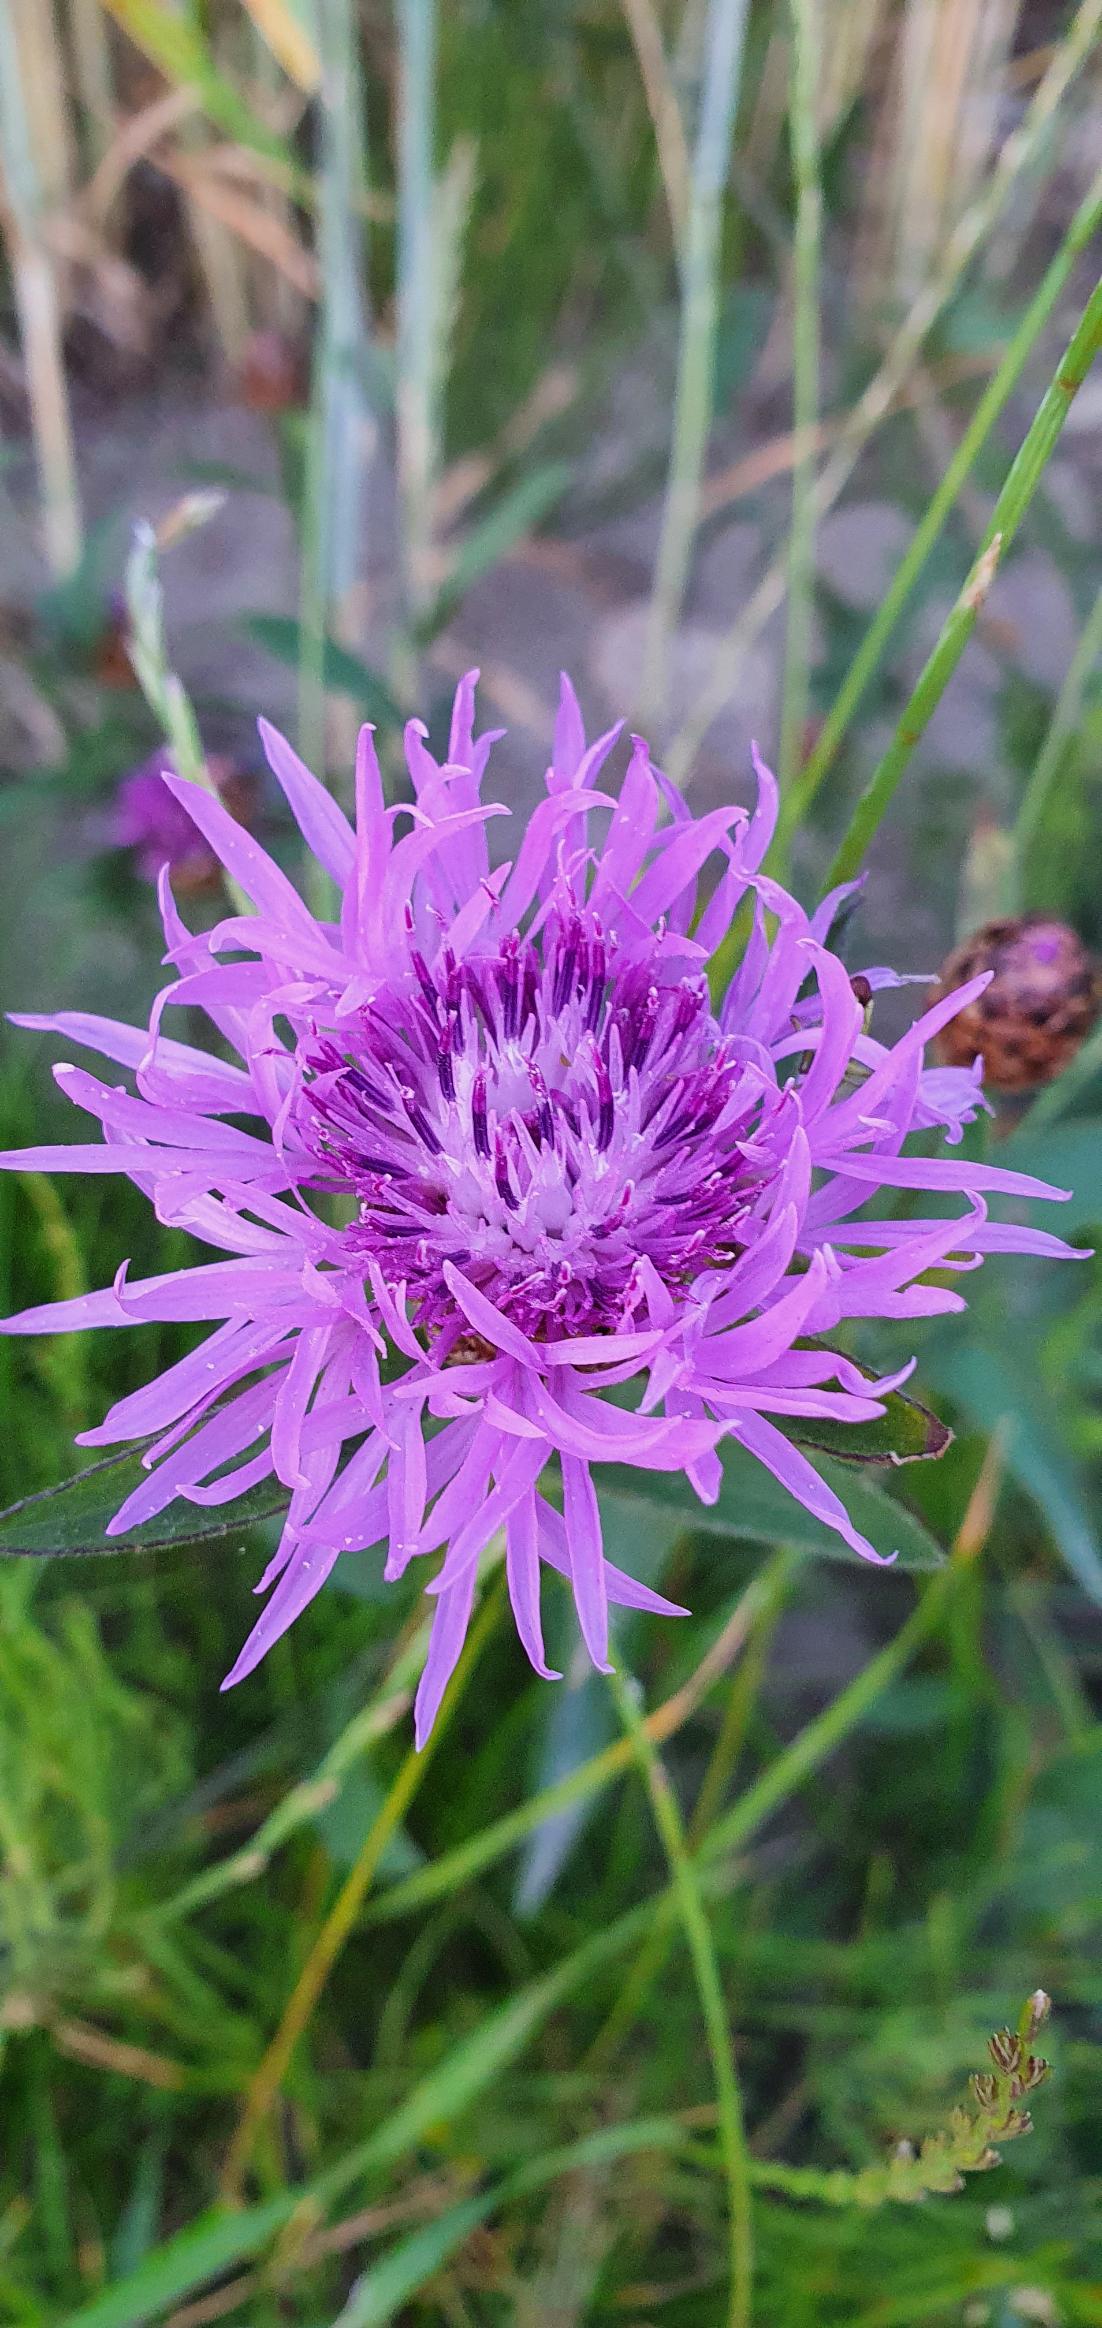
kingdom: Plantae
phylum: Tracheophyta
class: Magnoliopsida
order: Asterales
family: Asteraceae
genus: Centaurea
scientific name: Centaurea jacea
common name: Almindelig knopurt
